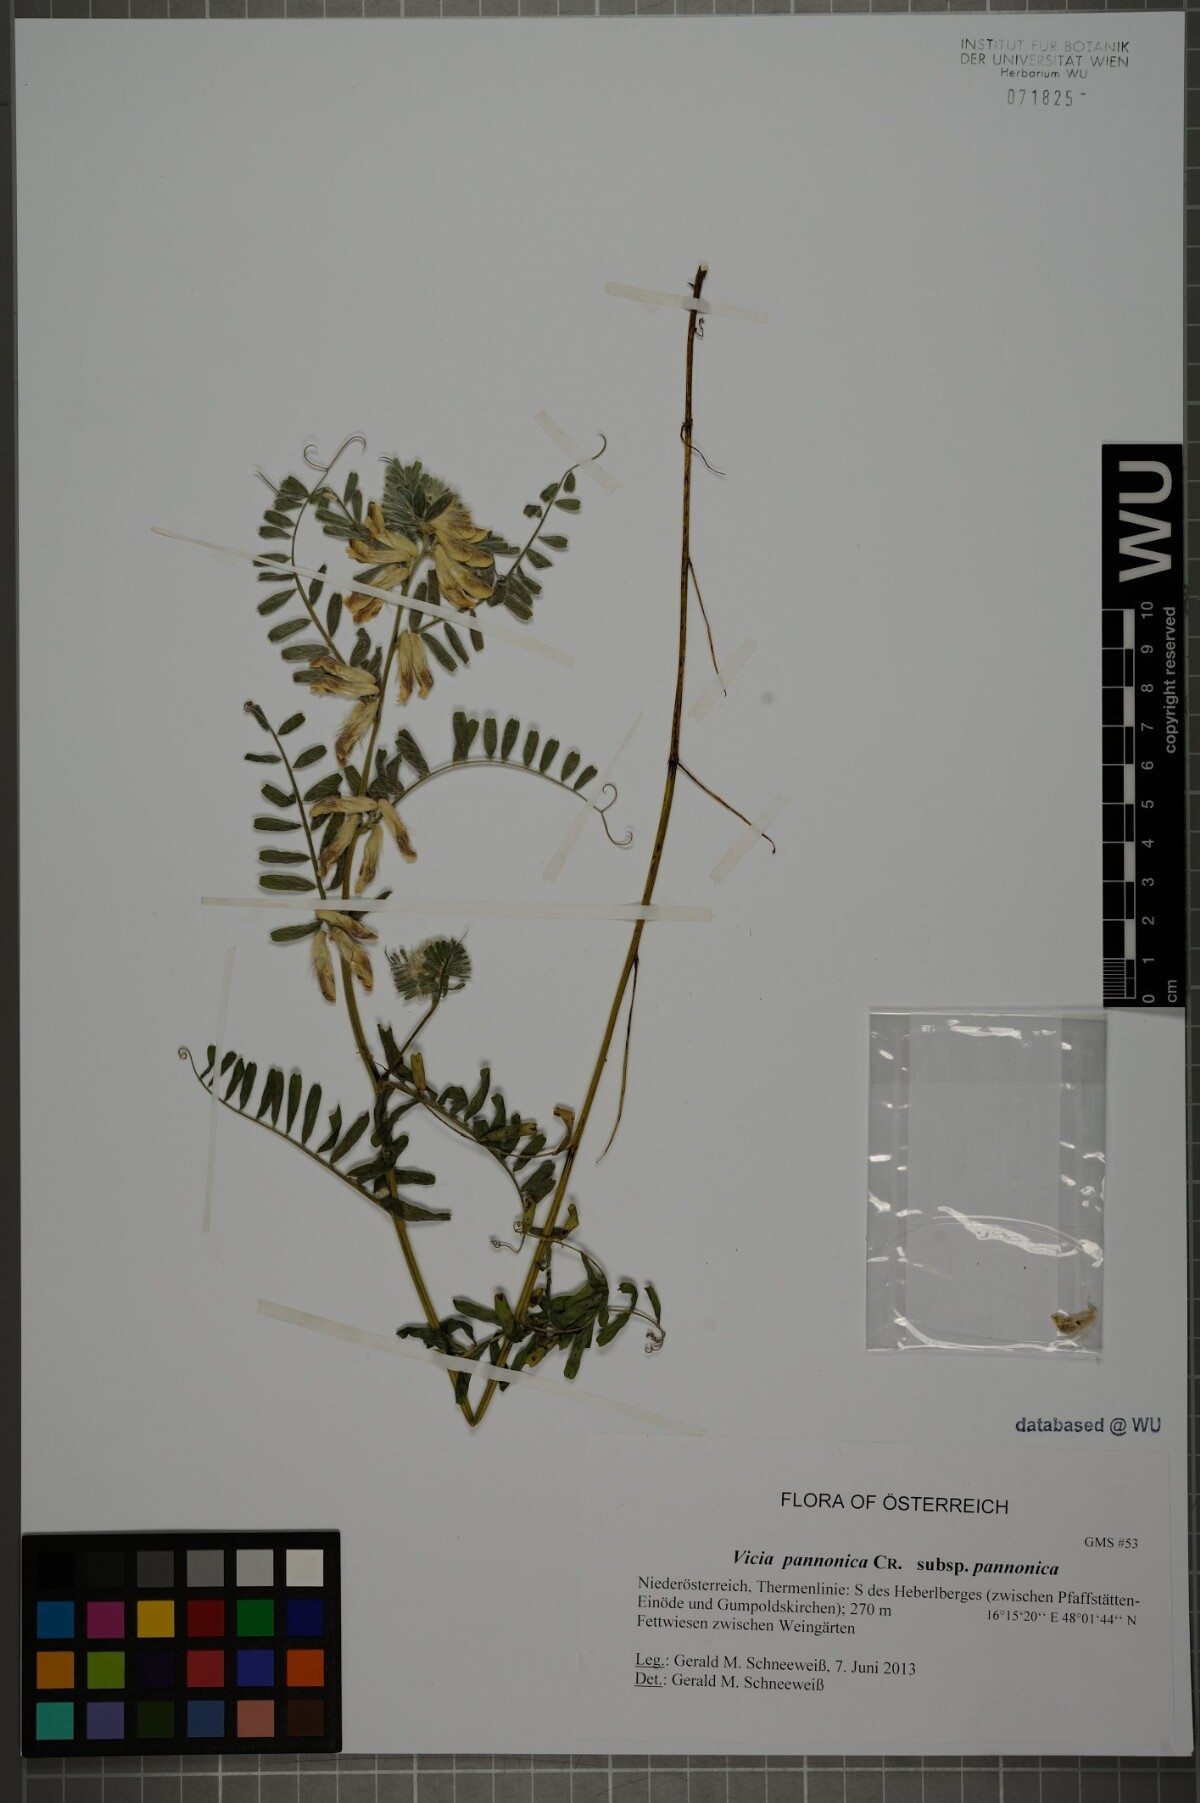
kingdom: Plantae
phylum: Tracheophyta
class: Magnoliopsida
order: Fabales
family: Fabaceae
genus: Vicia
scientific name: Vicia pannonica
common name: Hungarian vetch
